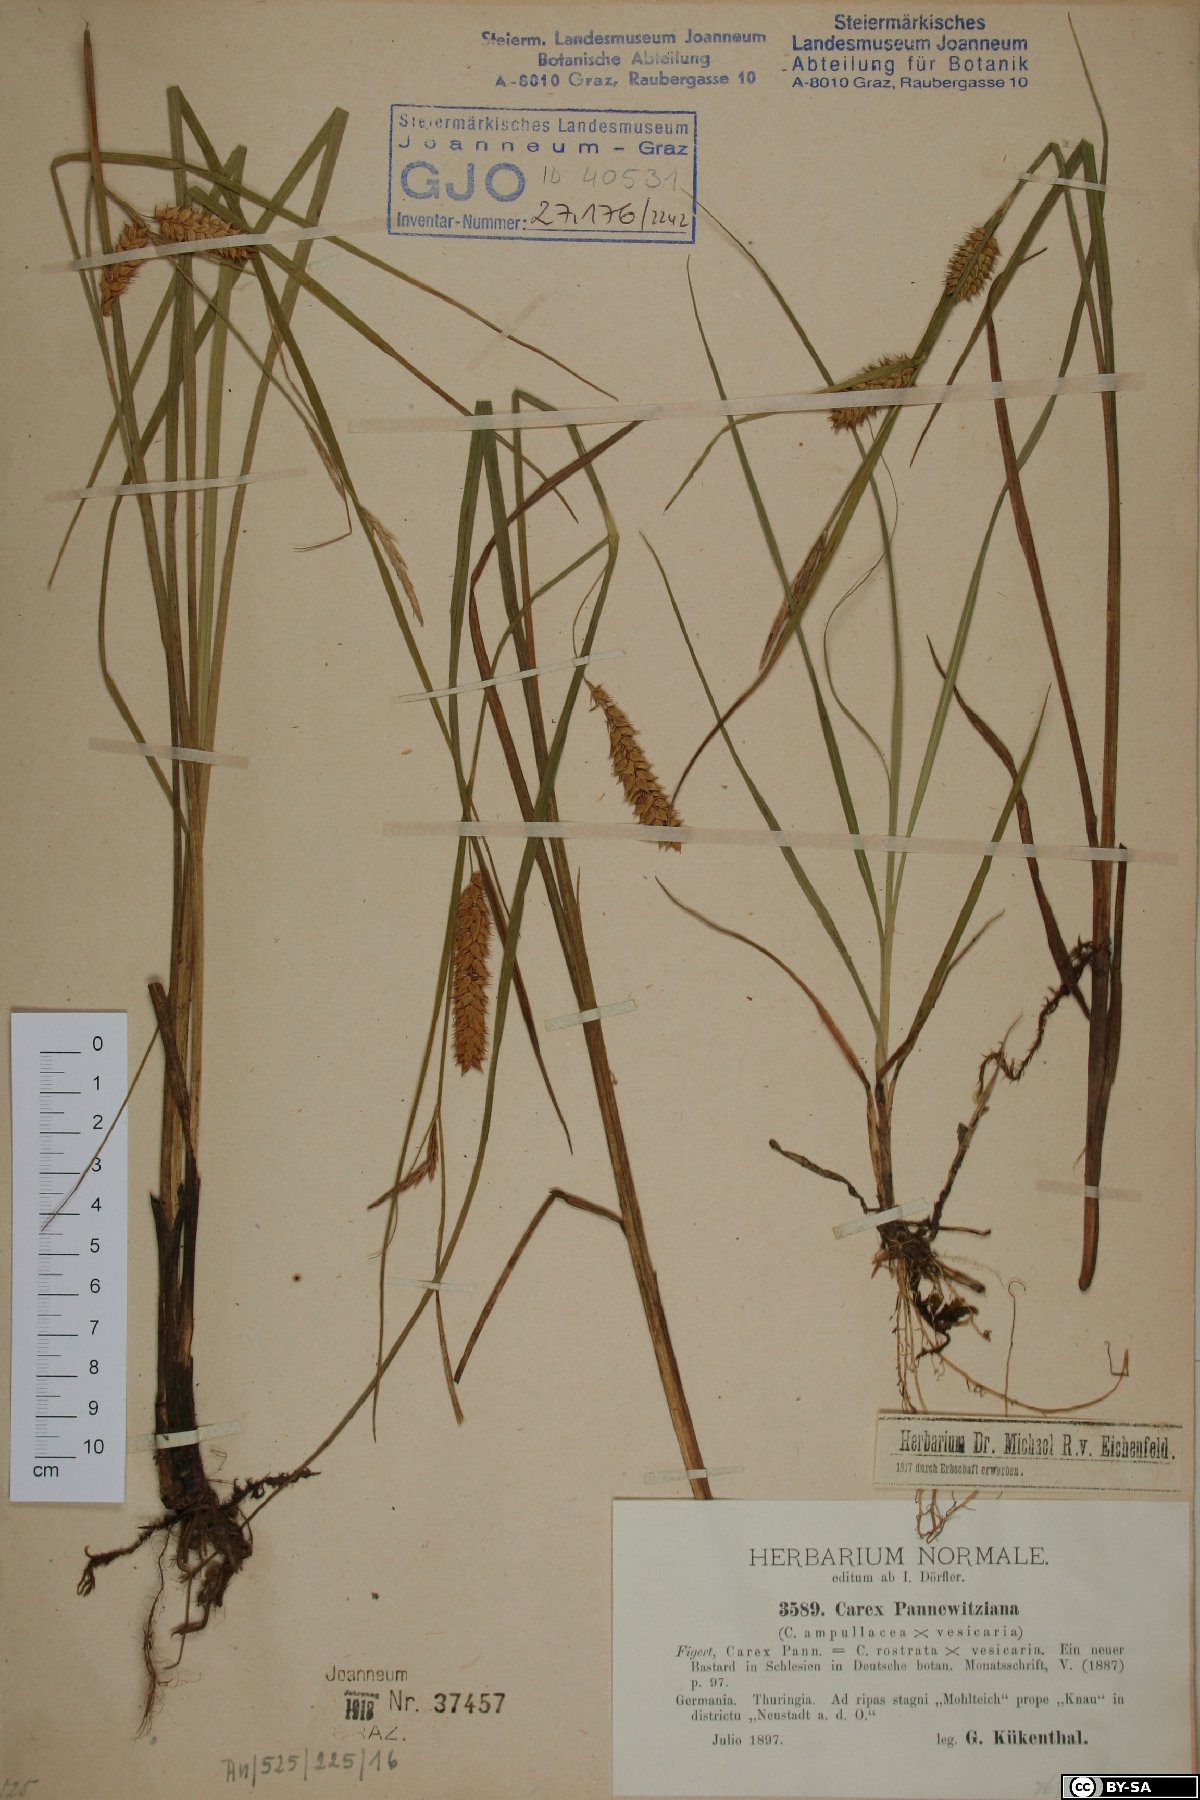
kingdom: Plantae
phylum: Tracheophyta
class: Liliopsida
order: Poales
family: Cyperaceae
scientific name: Cyperaceae
